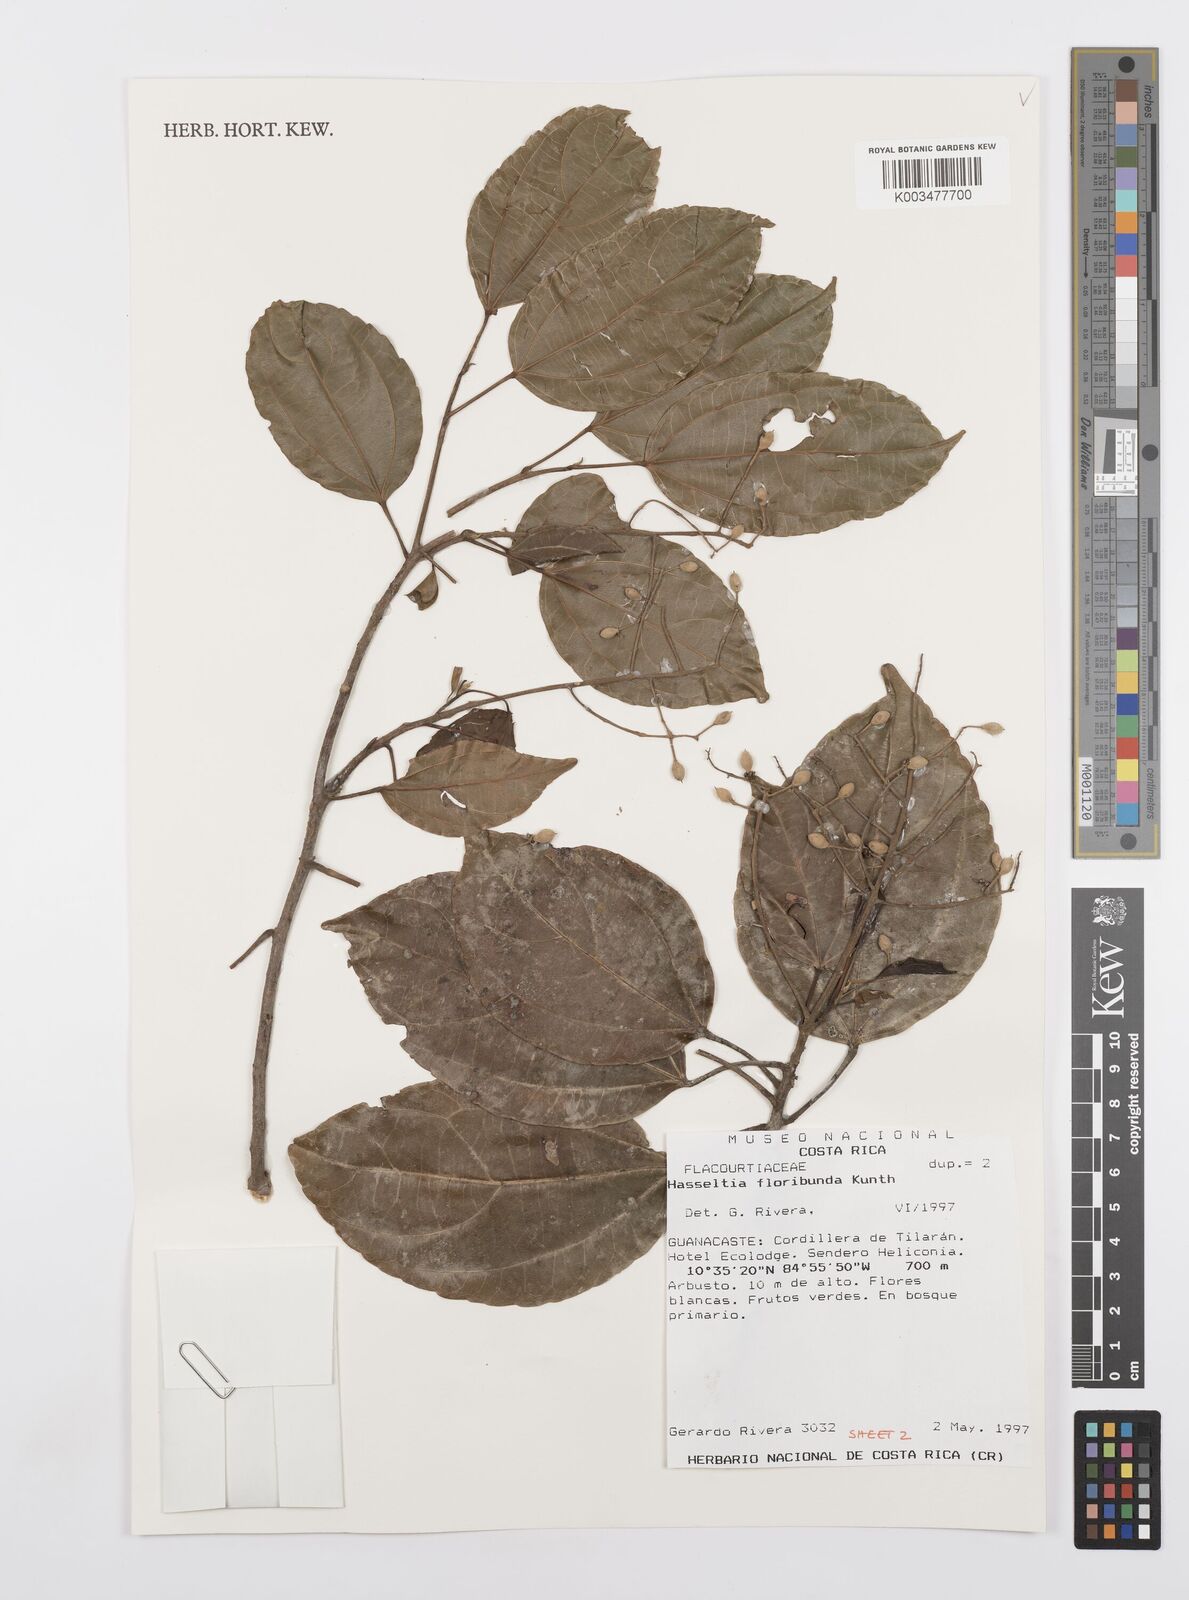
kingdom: Plantae
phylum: Tracheophyta
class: Magnoliopsida
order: Malpighiales
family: Salicaceae
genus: Pleuranthodendron
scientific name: Pleuranthodendron lindenii
